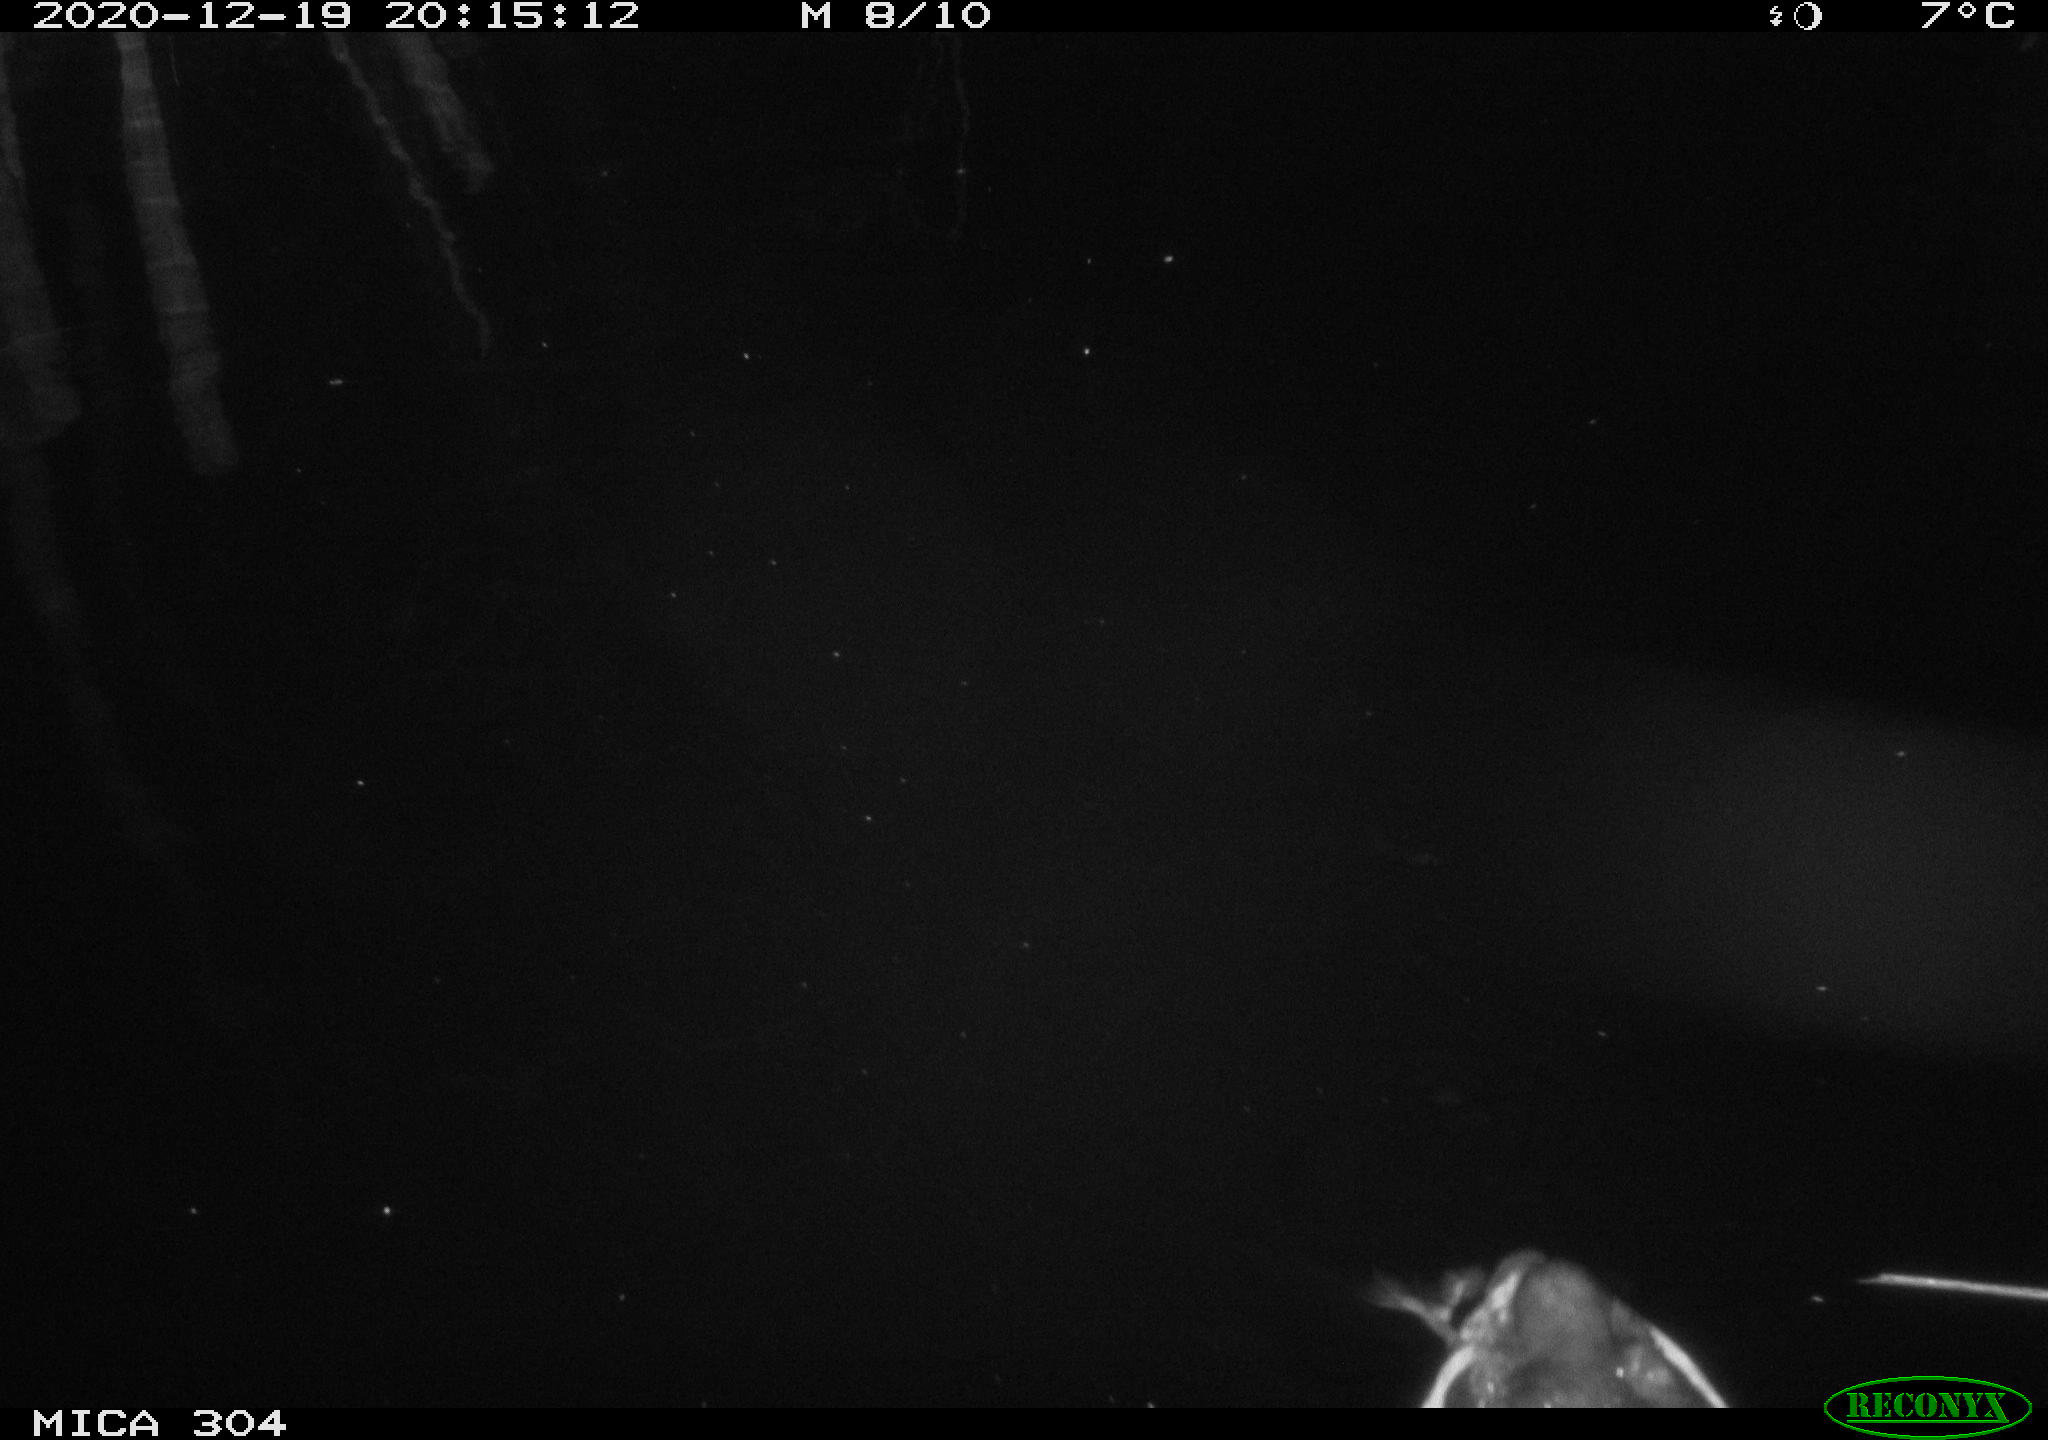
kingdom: Animalia
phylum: Chordata
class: Aves
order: Anseriformes
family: Anatidae
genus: Anas
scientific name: Anas platyrhynchos
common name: Mallard
